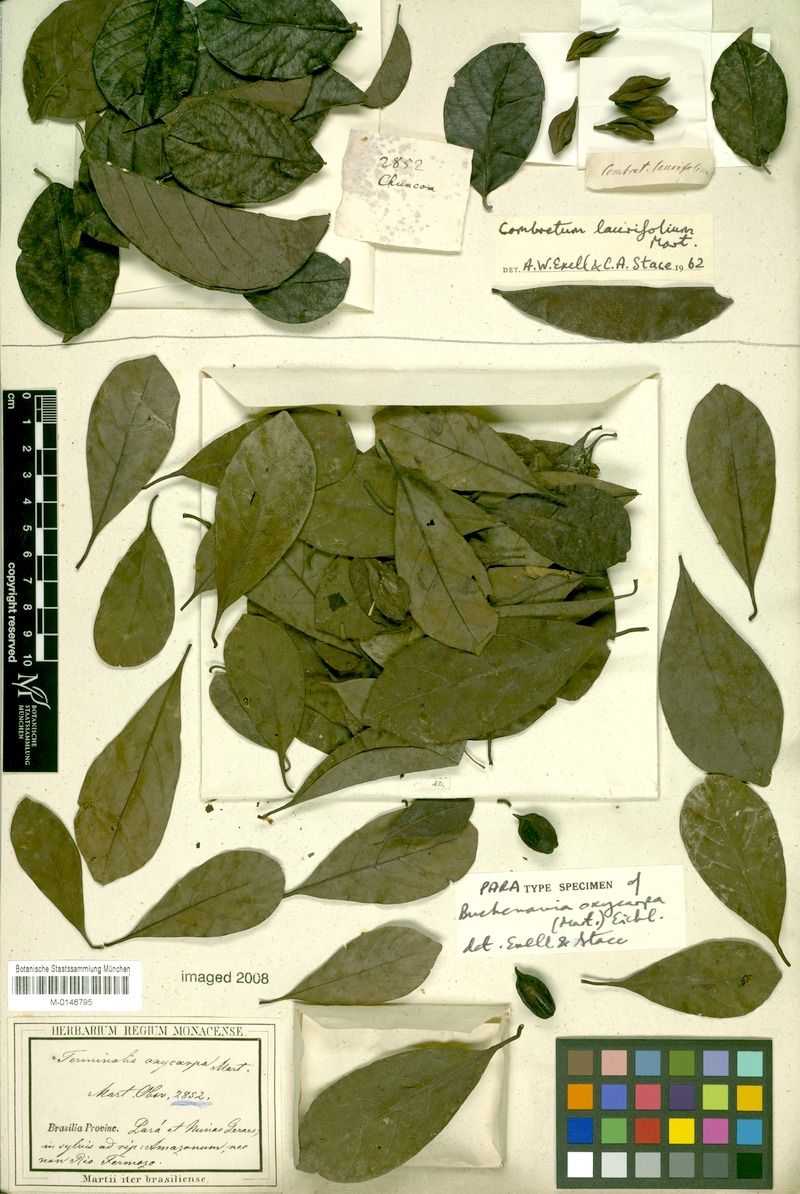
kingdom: Plantae
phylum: Tracheophyta
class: Magnoliopsida
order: Myrtales
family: Combretaceae
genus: Terminalia
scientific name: Terminalia oxycarpa
